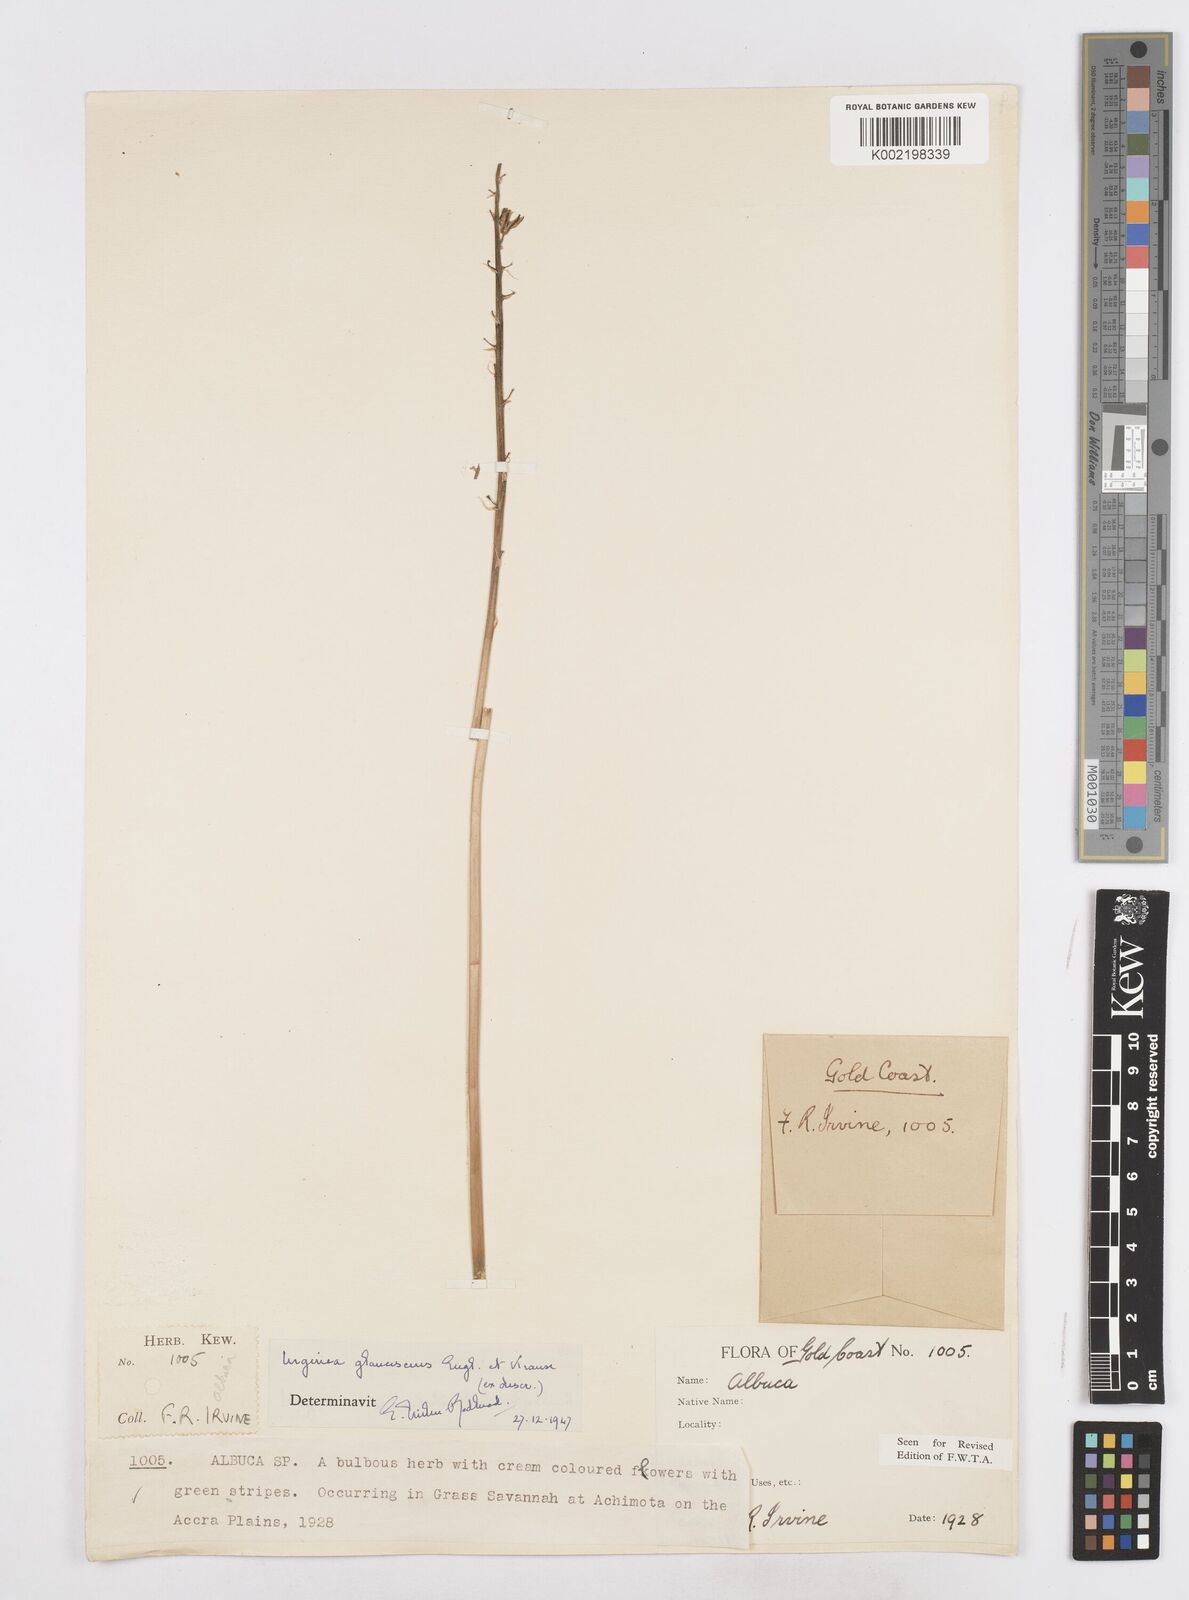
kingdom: Plantae
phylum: Tracheophyta
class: Liliopsida
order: Asparagales
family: Asparagaceae
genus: Ledebouria
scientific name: Ledebouria ensifolia
